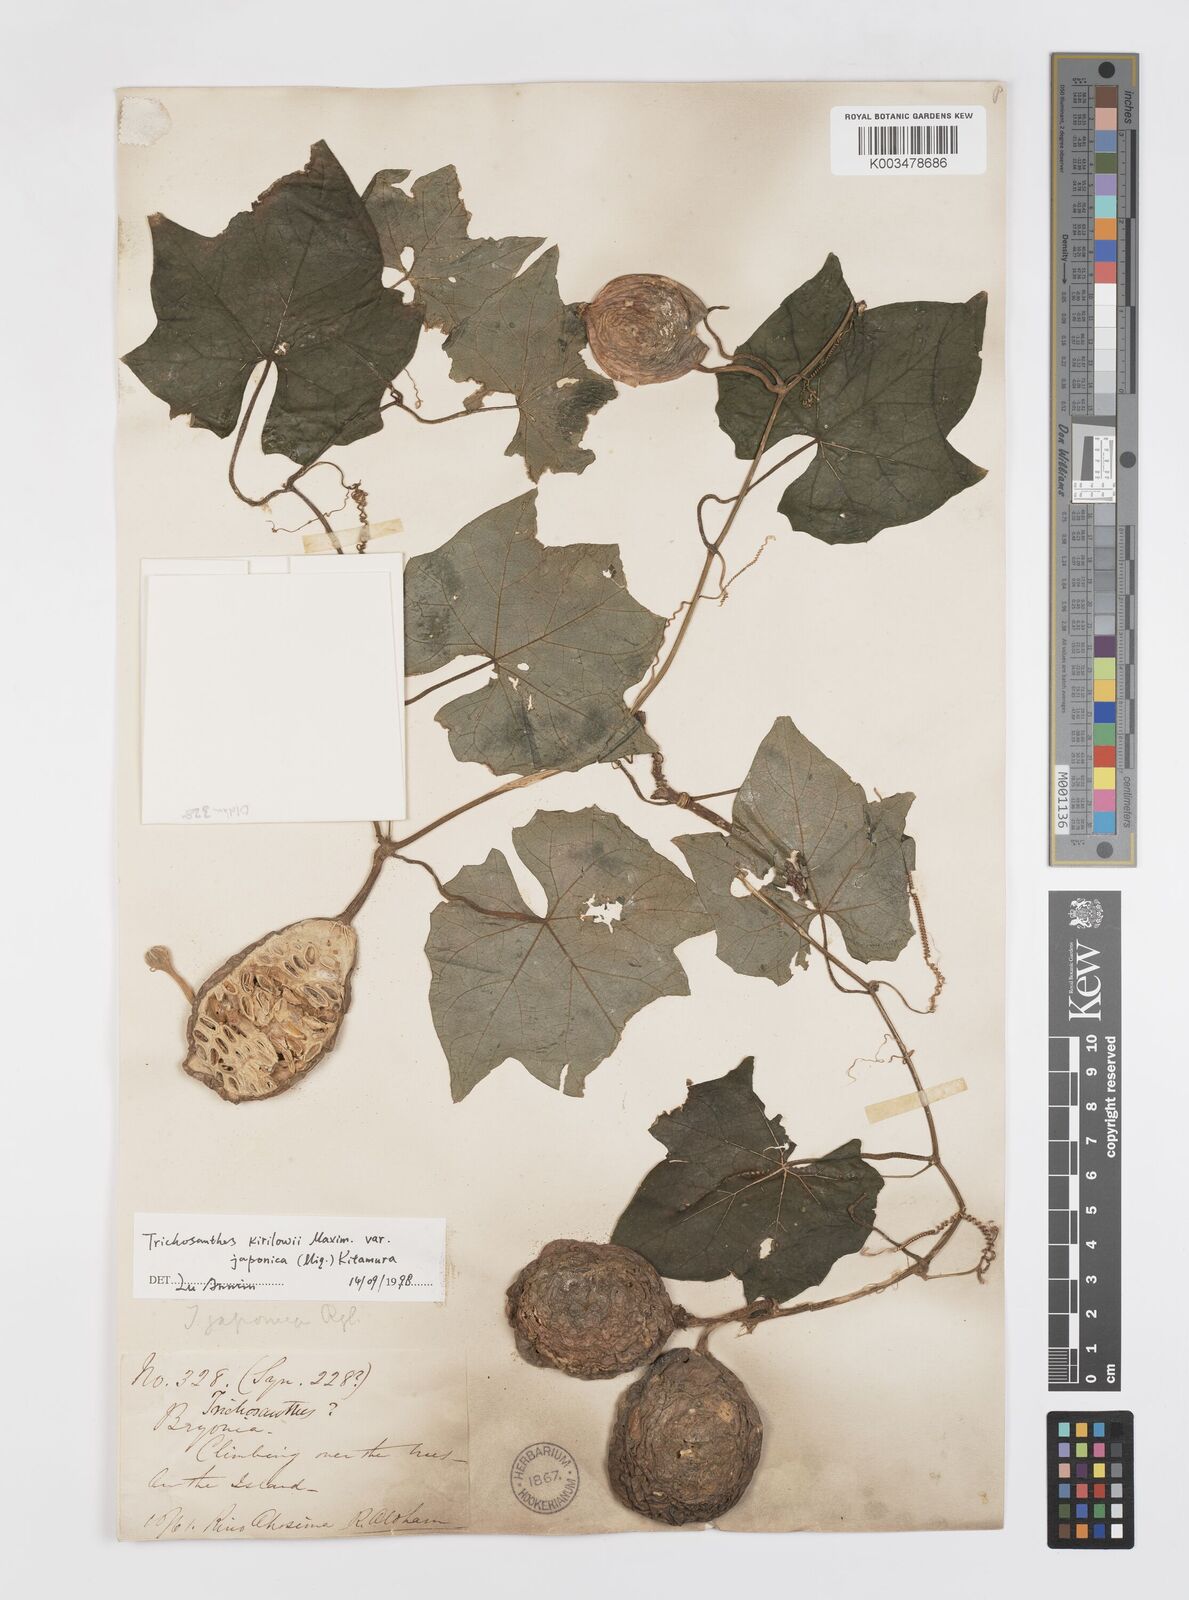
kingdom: Plantae
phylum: Tracheophyta
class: Magnoliopsida
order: Cucurbitales
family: Cucurbitaceae
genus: Trichosanthes
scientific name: Trichosanthes kirilowii
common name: Chinese-cucumber
